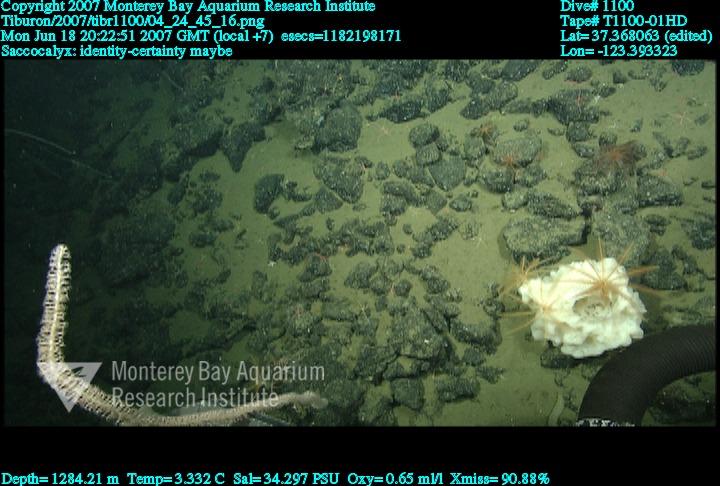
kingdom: Animalia
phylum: Porifera
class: Hexactinellida
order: Lyssacinosida
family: Euplectellidae
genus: Saccocalyx
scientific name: Saccocalyx
